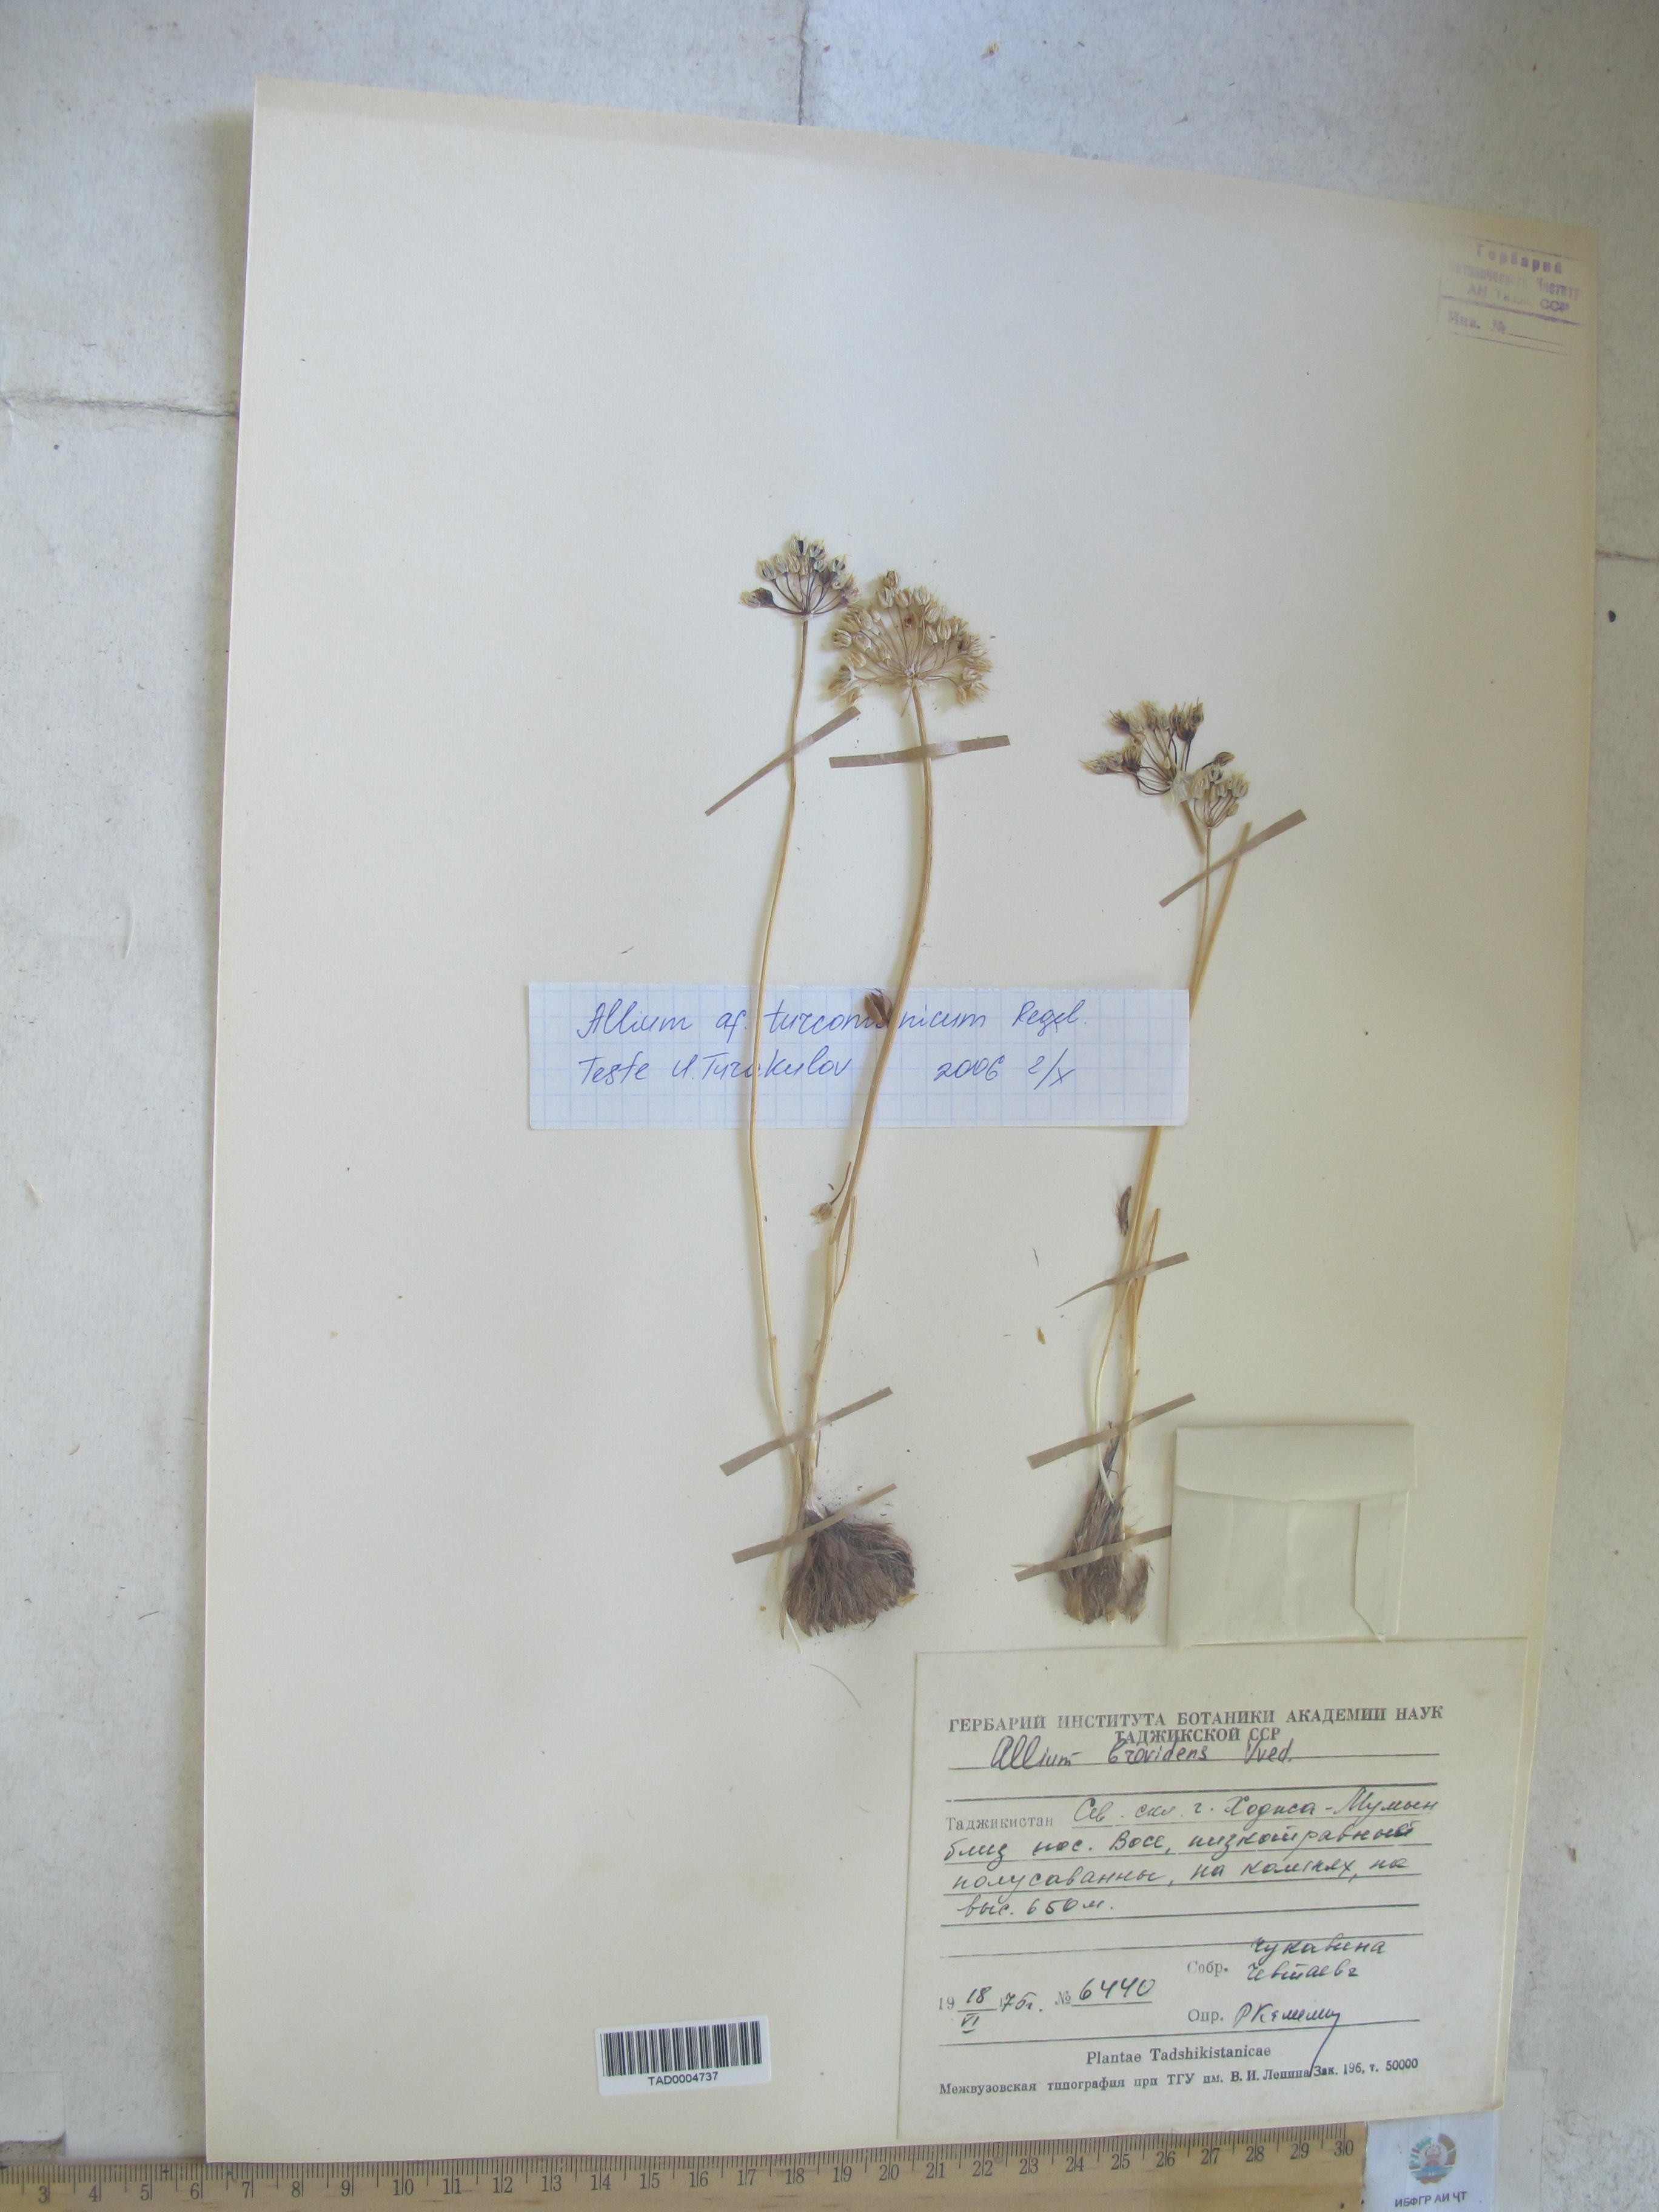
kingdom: Plantae
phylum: Tracheophyta
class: Liliopsida
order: Asparagales
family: Amaryllidaceae
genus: Allium
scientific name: Allium brevidens
